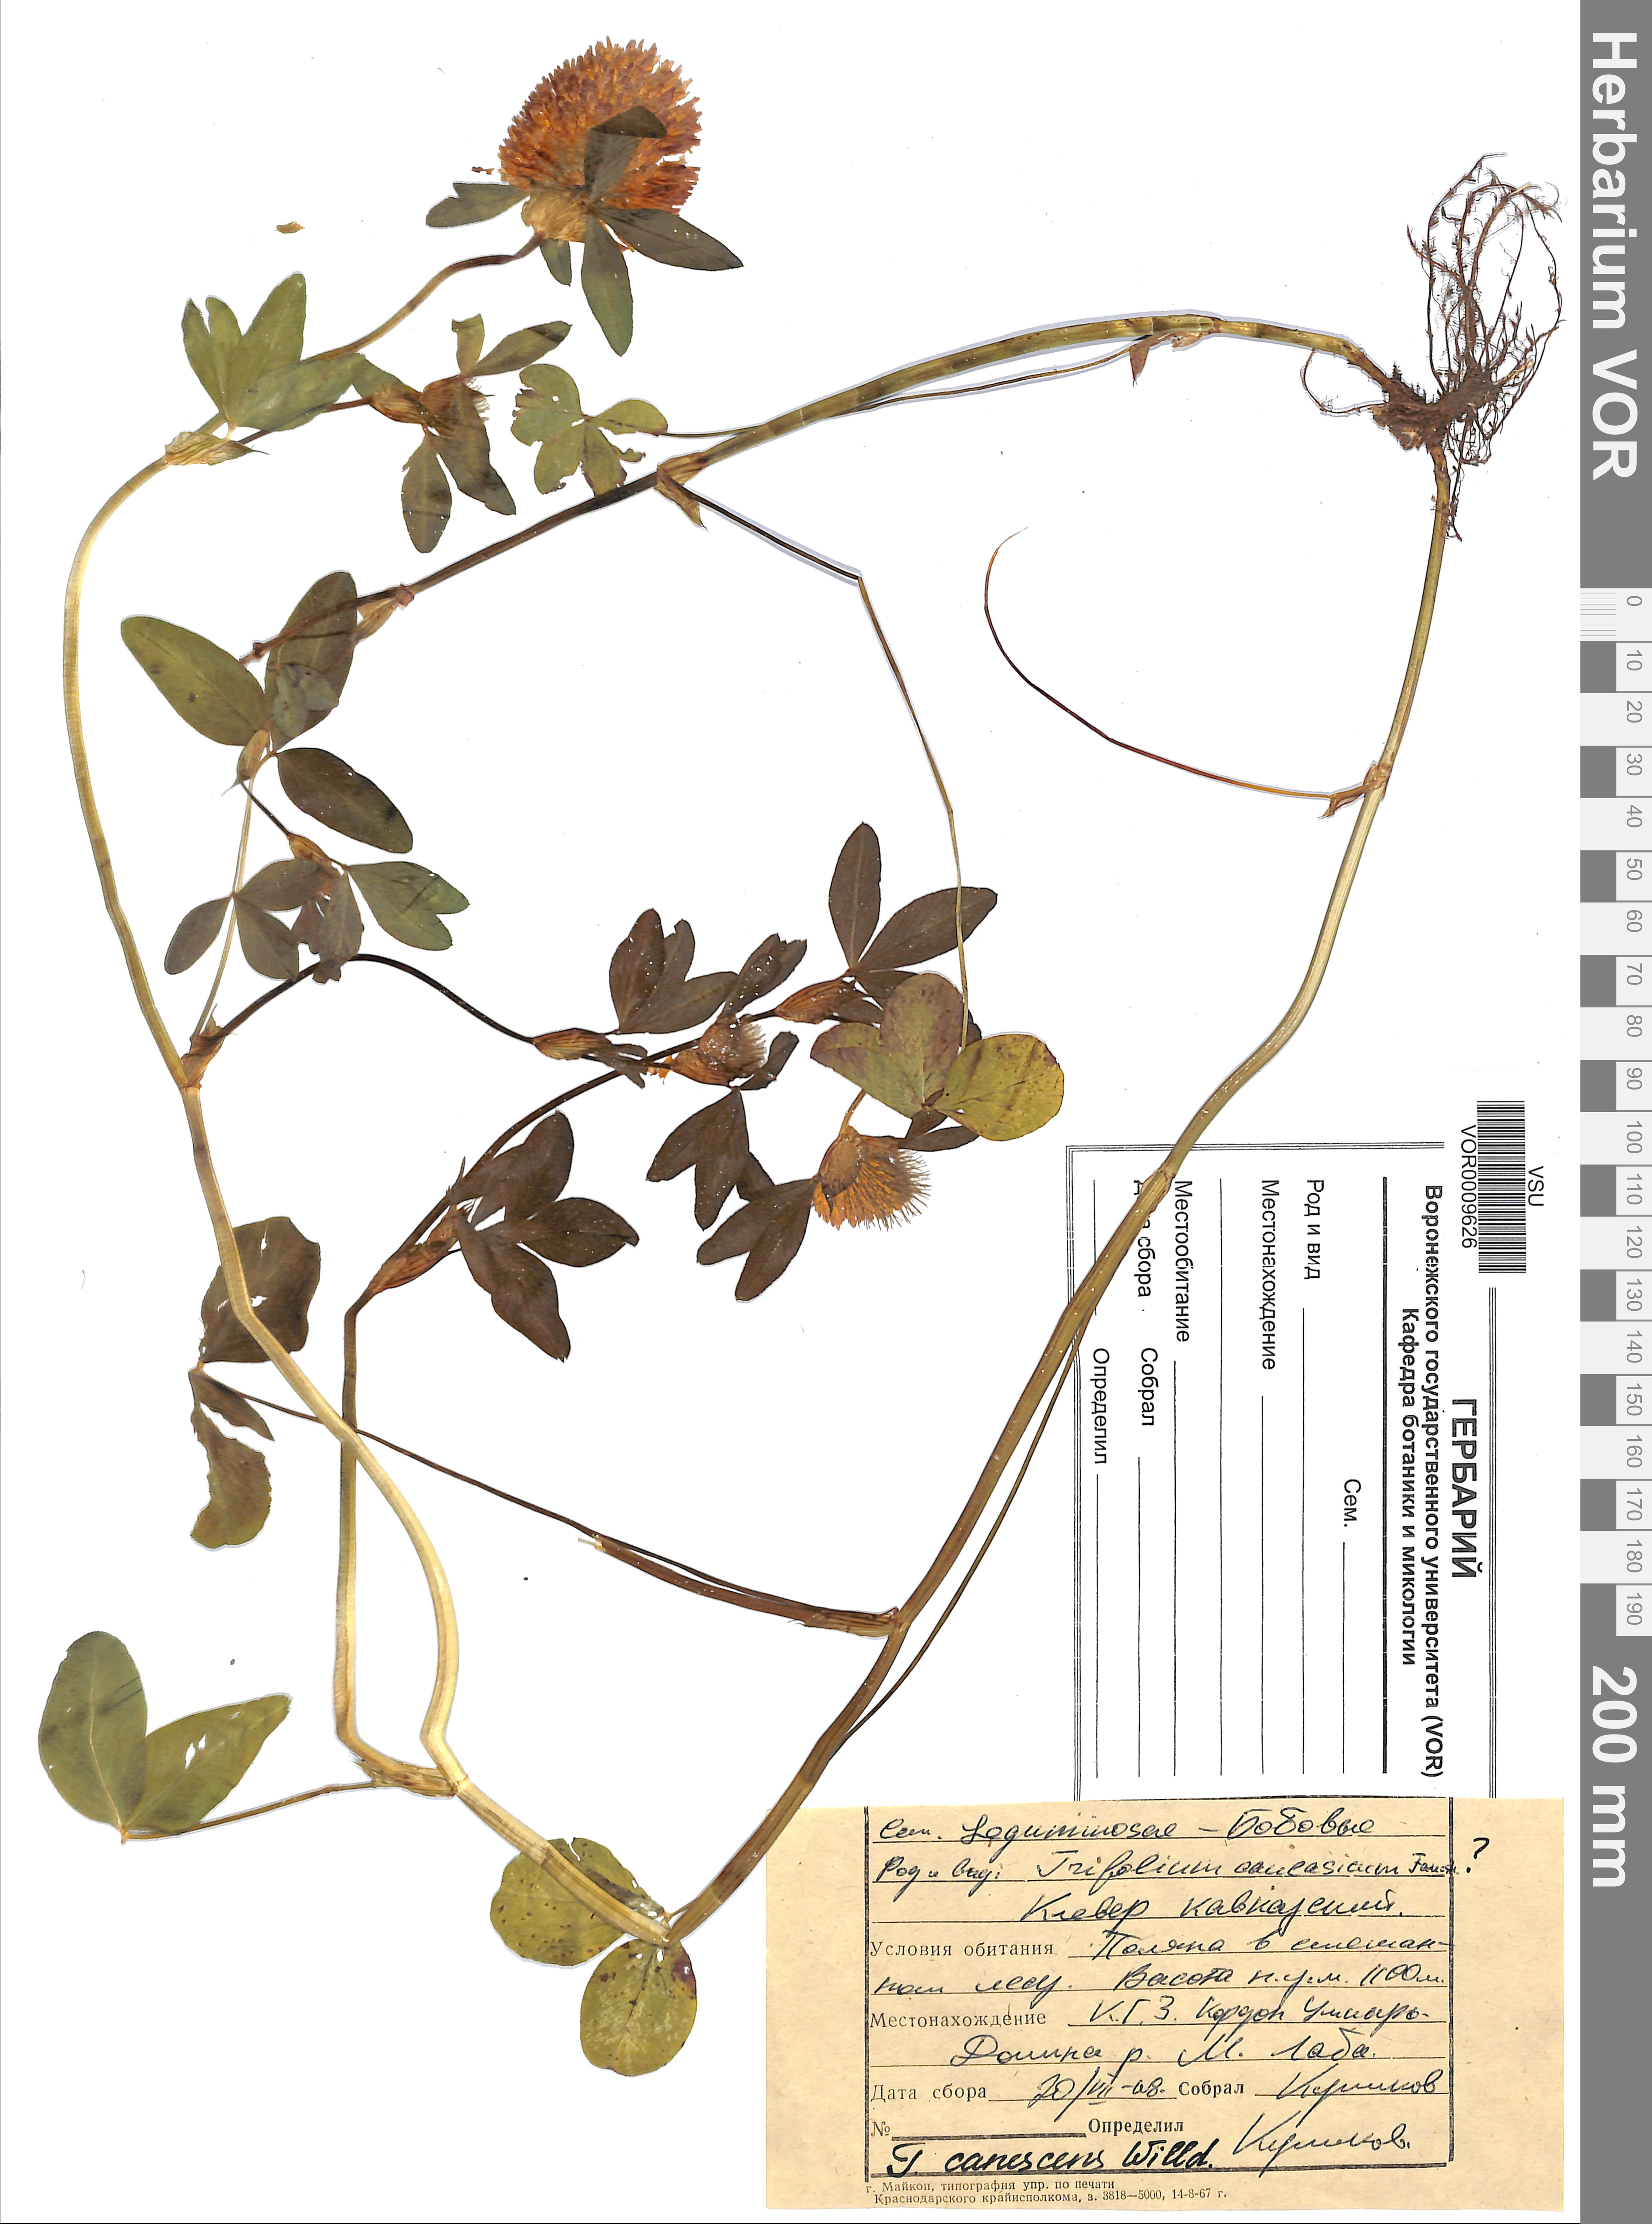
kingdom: Plantae
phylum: Tracheophyta
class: Magnoliopsida
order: Fabales
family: Fabaceae
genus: Trifolium
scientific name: Trifolium canescens
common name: Graying clover
